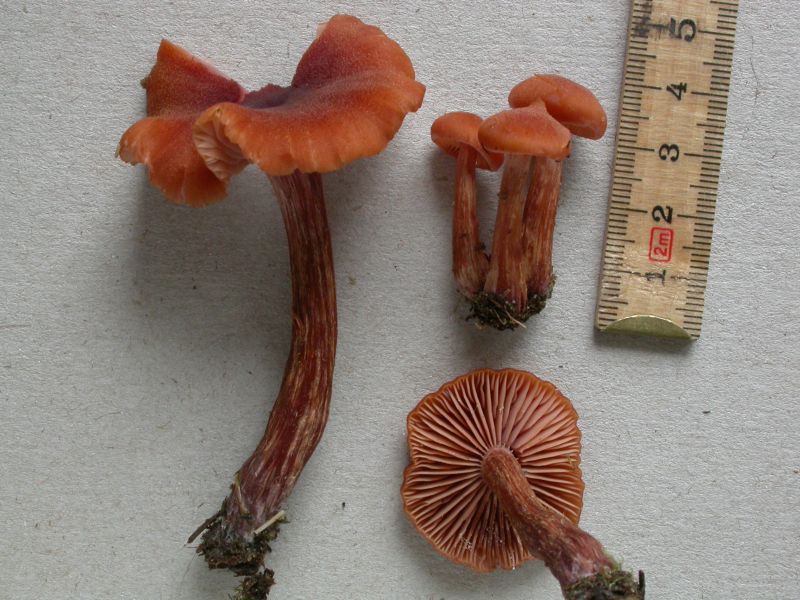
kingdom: Fungi
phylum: Basidiomycota
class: Agaricomycetes
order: Agaricales
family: Hydnangiaceae
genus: Laccaria
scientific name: Laccaria proxima
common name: stor ametysthat
